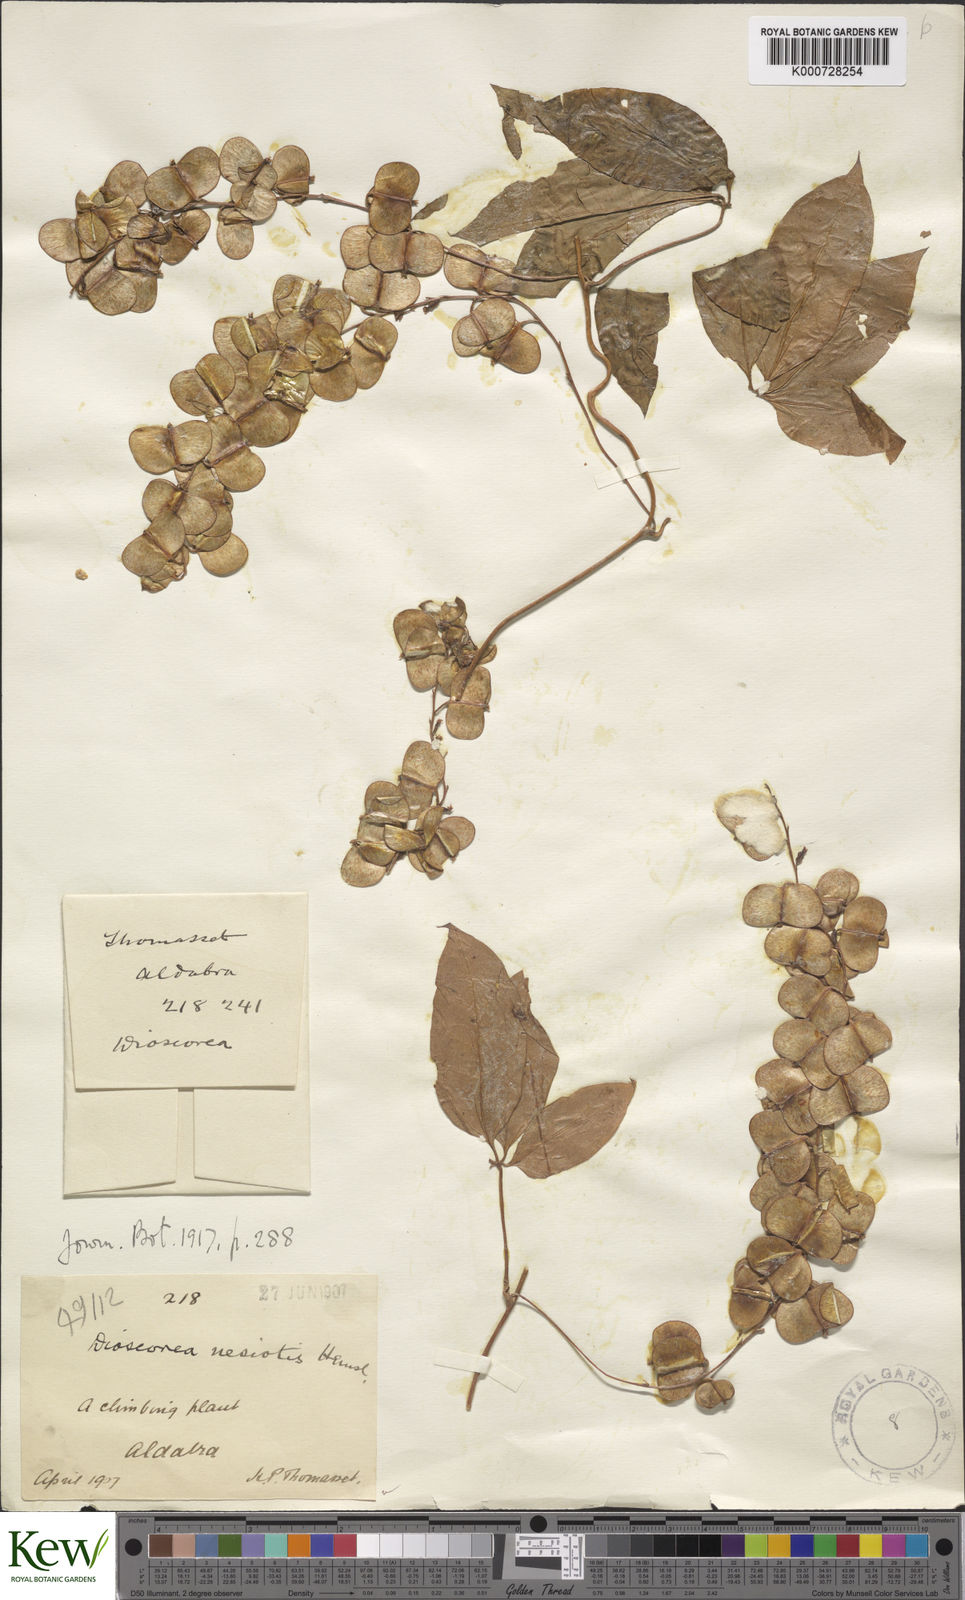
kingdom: Plantae
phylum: Tracheophyta
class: Liliopsida
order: Dioscoreales
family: Dioscoreaceae
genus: Dioscorea
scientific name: Dioscorea bemarivensis
